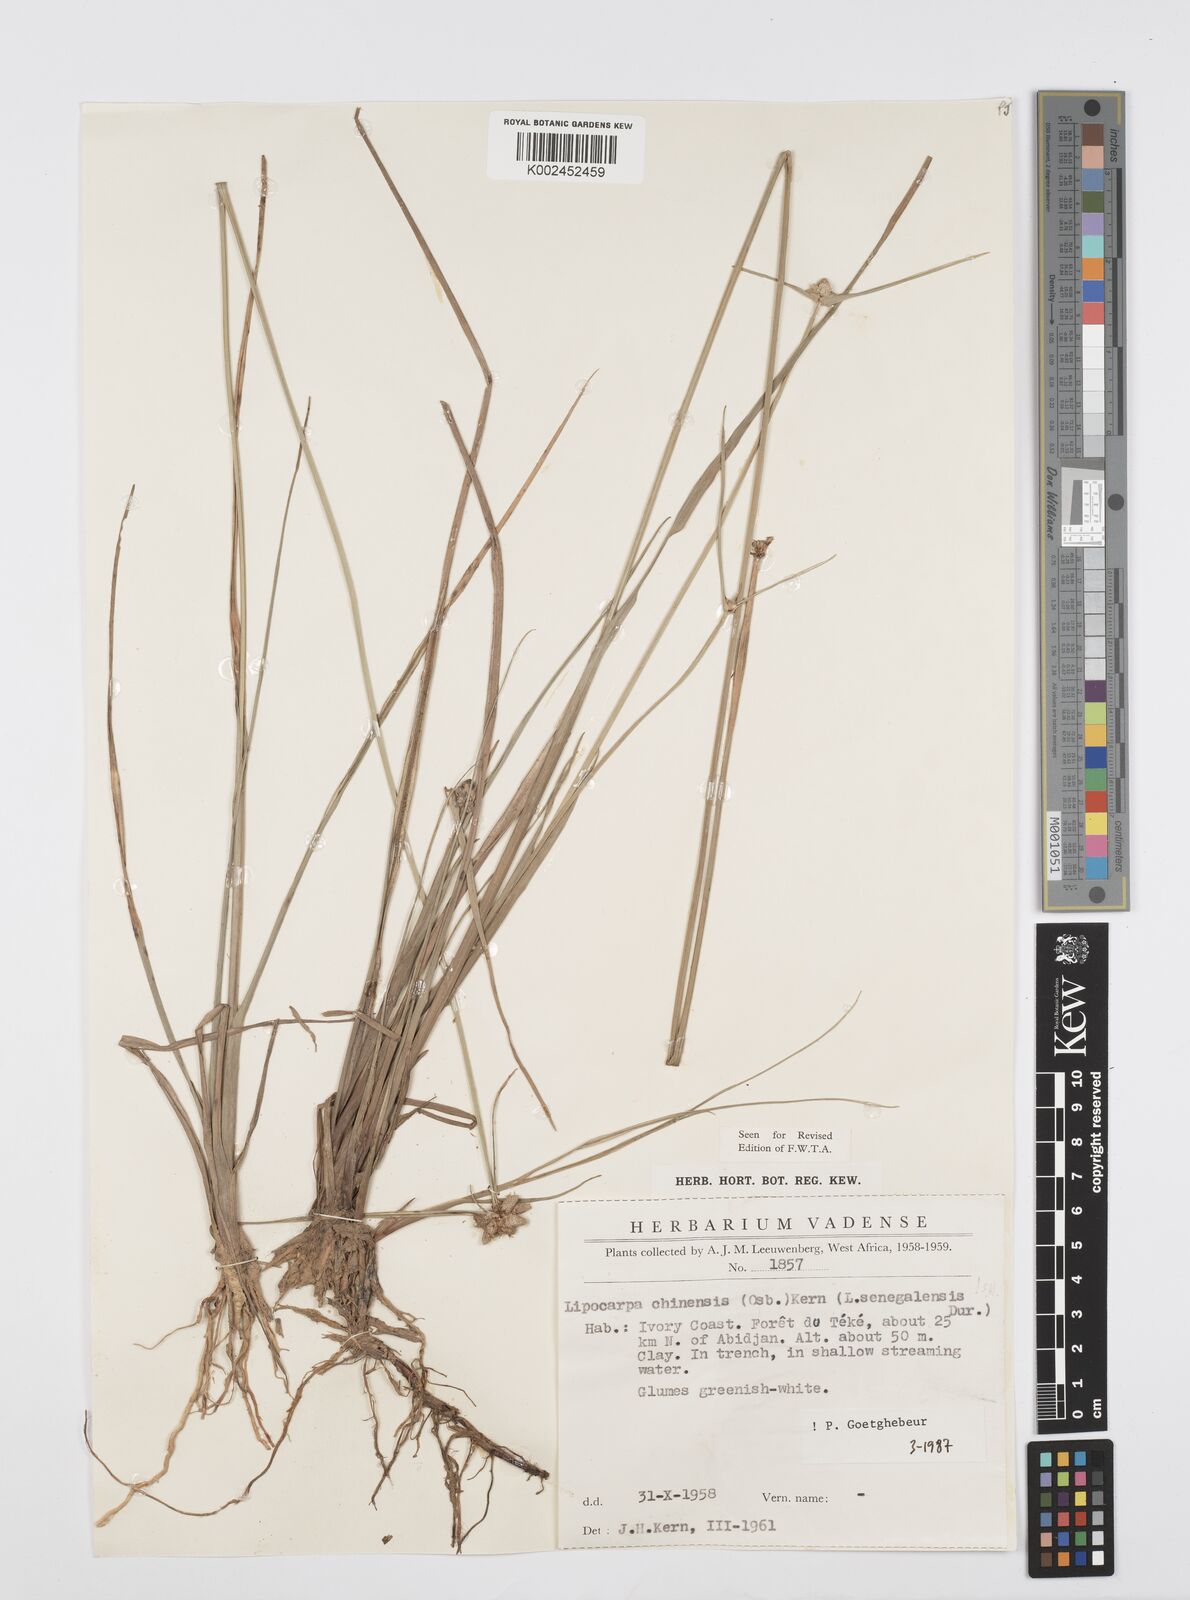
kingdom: Plantae
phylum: Tracheophyta
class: Liliopsida
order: Poales
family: Cyperaceae
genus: Cyperus
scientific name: Cyperus albescens
